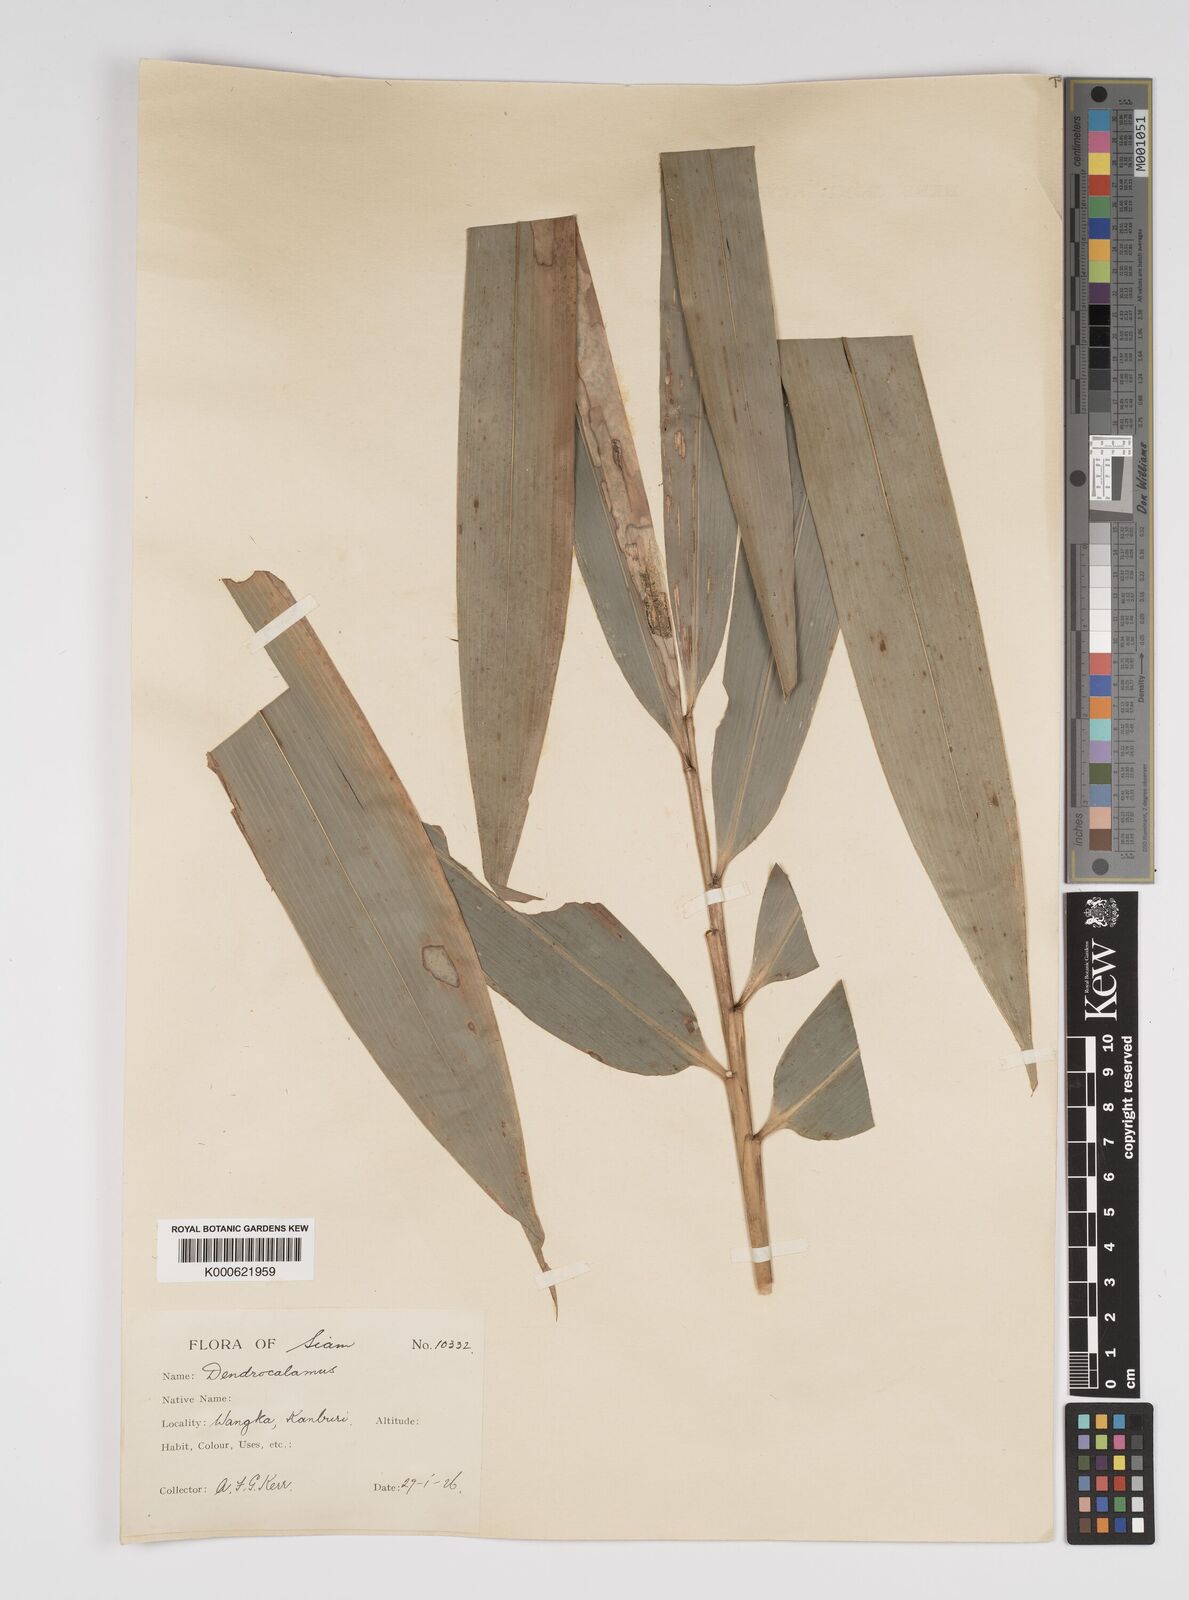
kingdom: Plantae
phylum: Tracheophyta
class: Liliopsida
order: Poales
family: Poaceae
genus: Bambusa
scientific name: Bambusa
